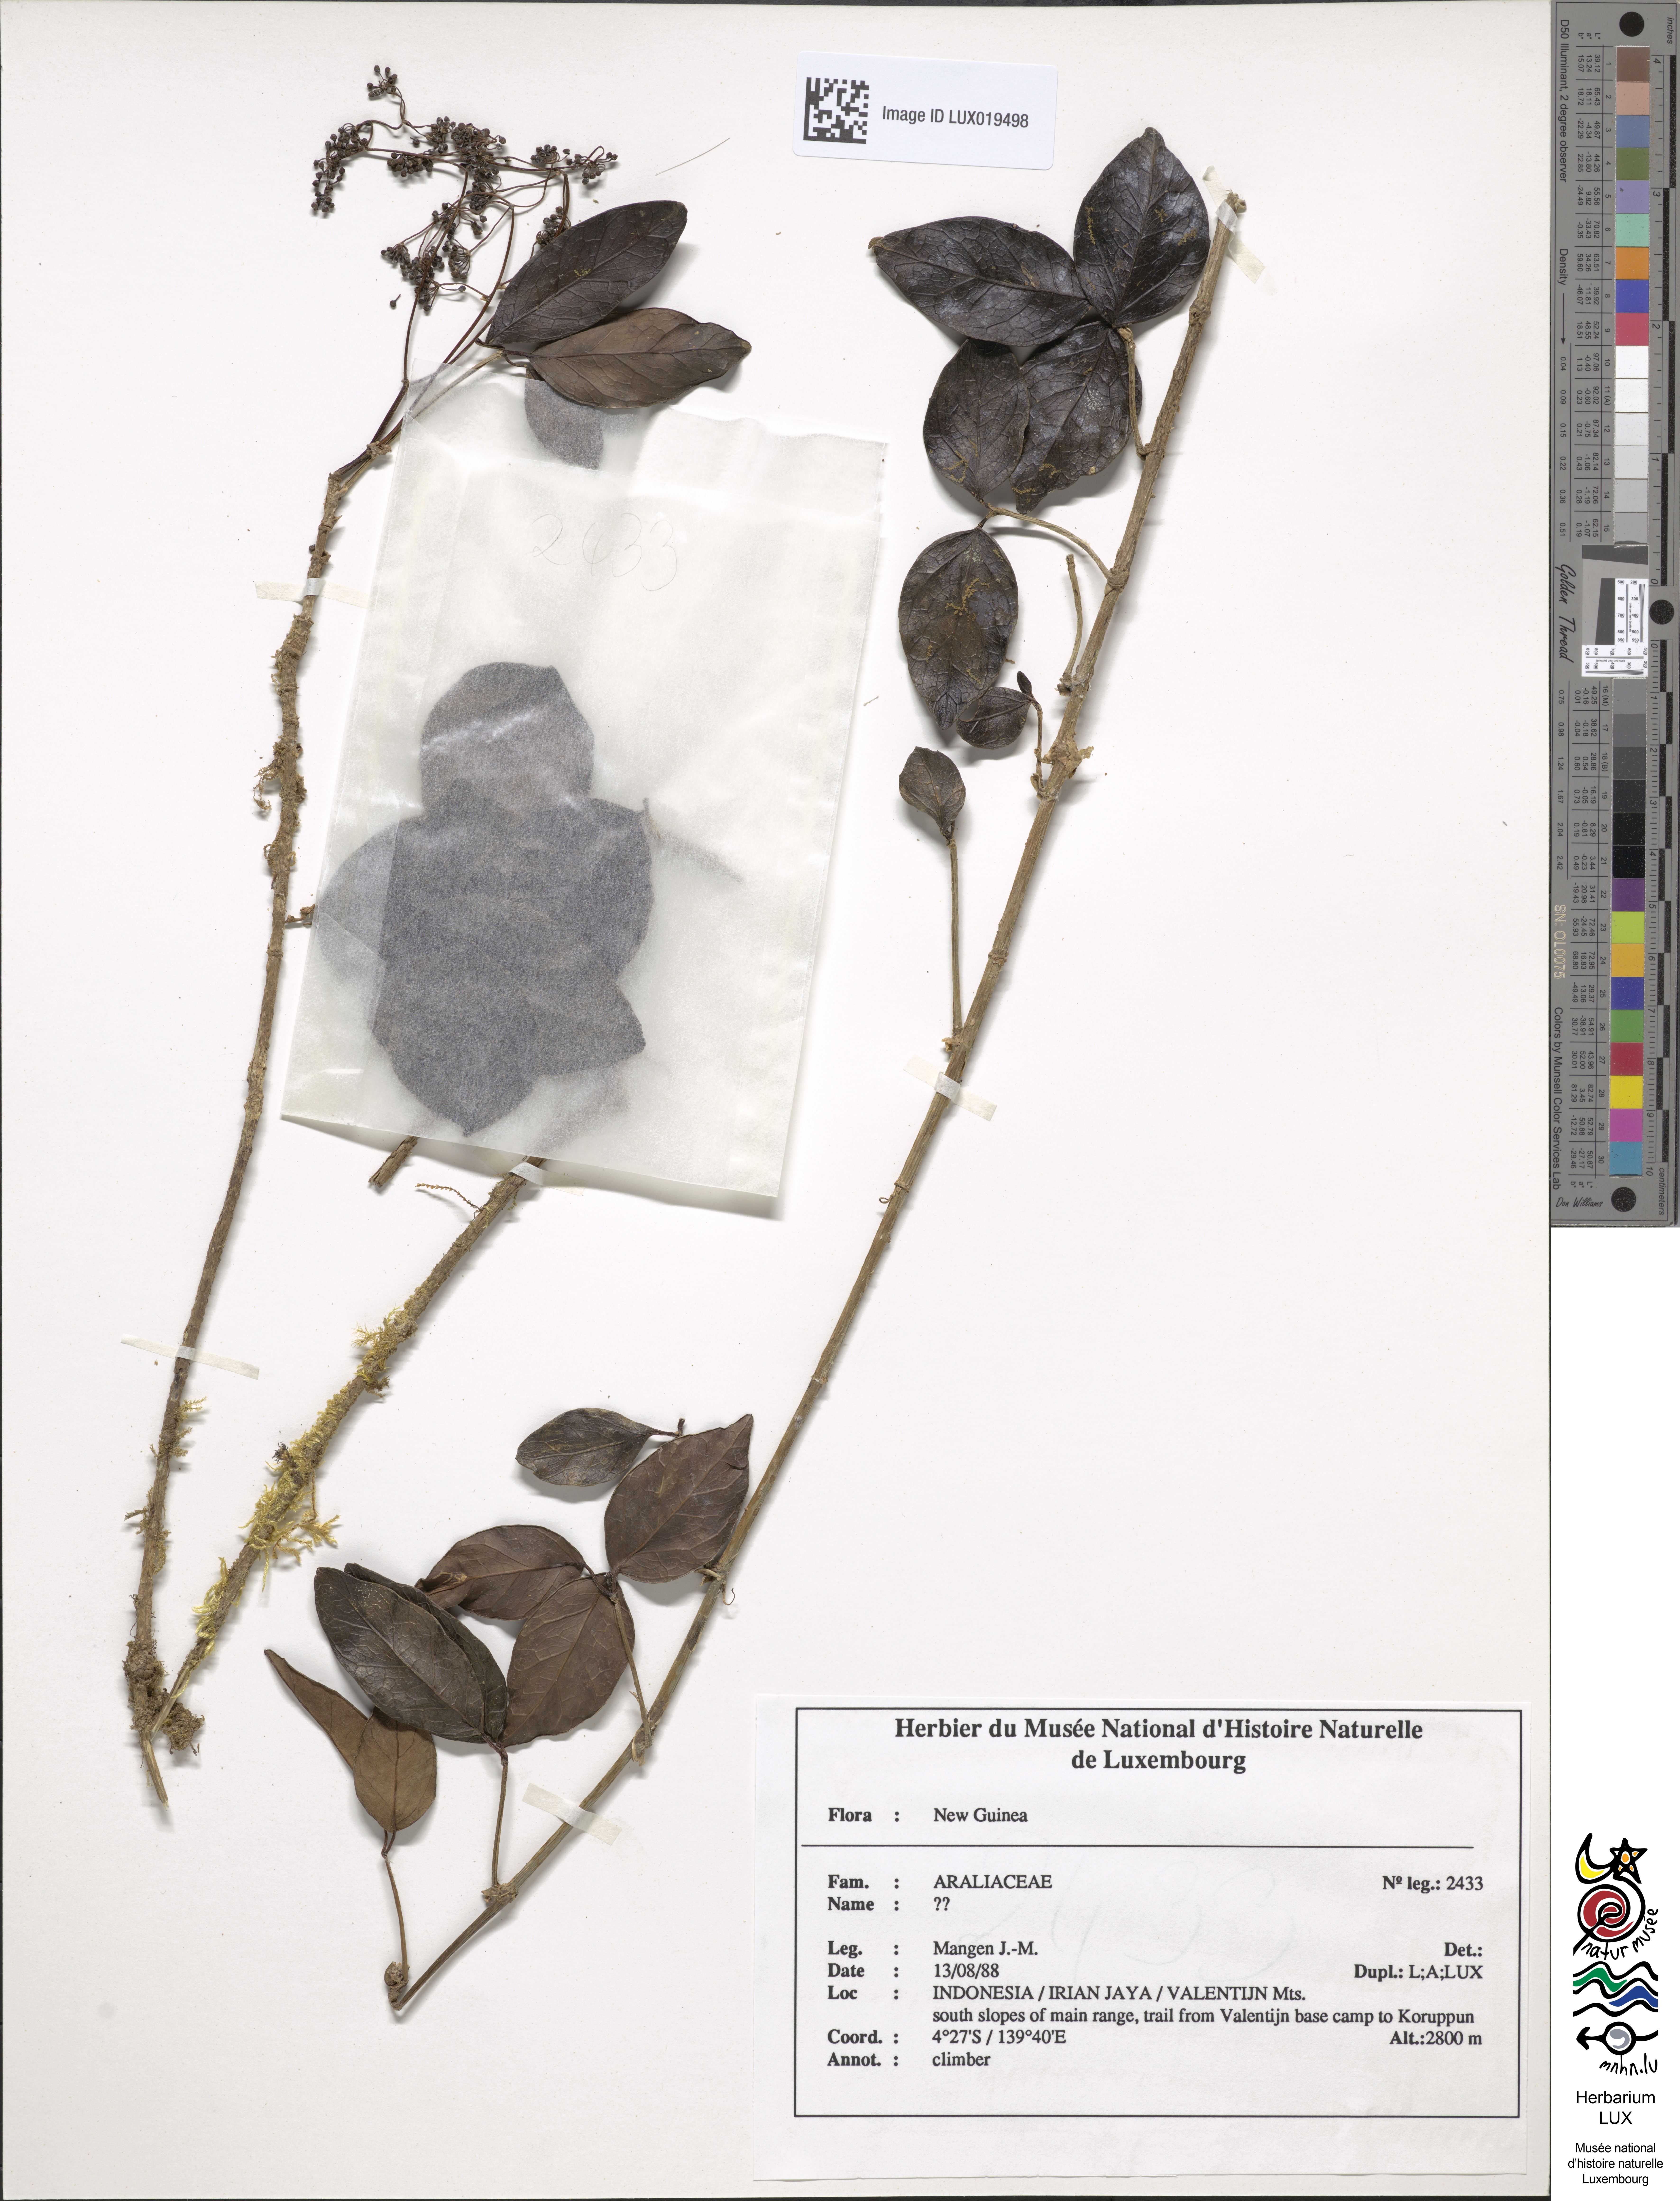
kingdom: Plantae
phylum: Tracheophyta
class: Magnoliopsida
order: Apiales
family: Araliaceae
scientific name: Araliaceae
